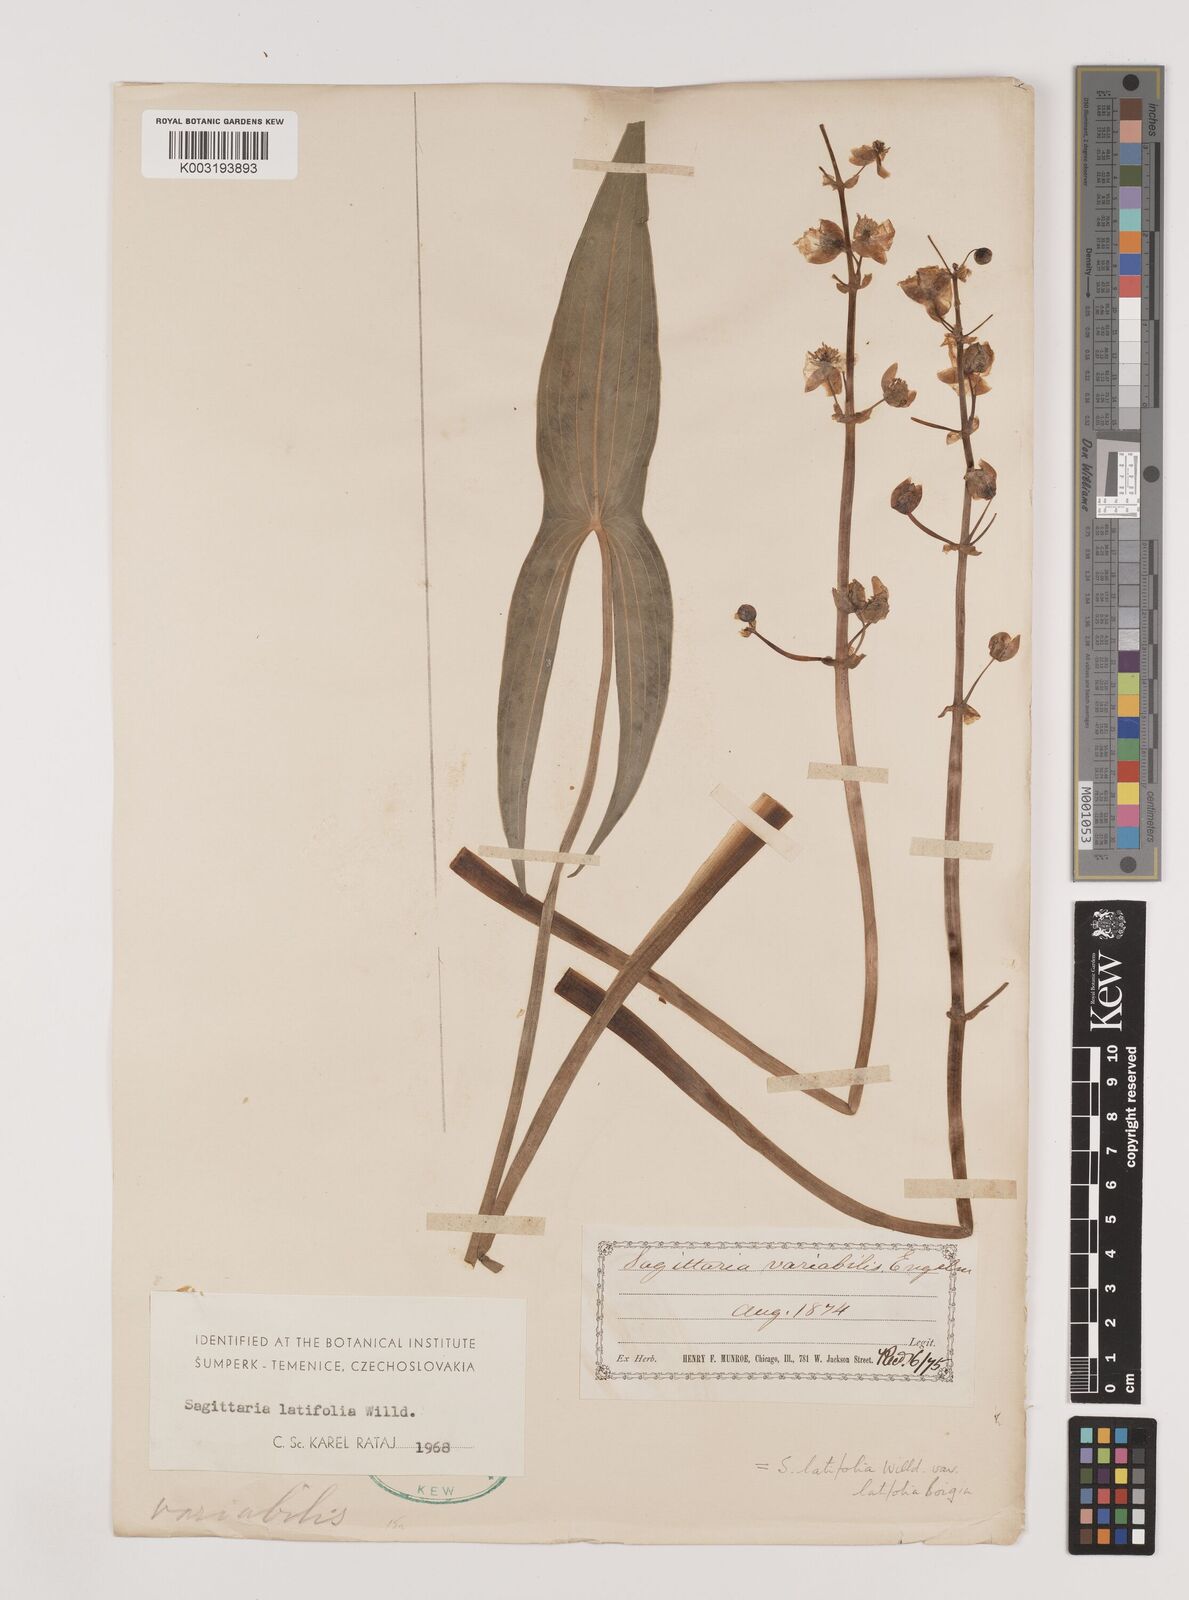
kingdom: Plantae
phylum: Tracheophyta
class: Liliopsida
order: Alismatales
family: Alismataceae
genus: Sagittaria
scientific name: Sagittaria latifolia
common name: Duck-potato
